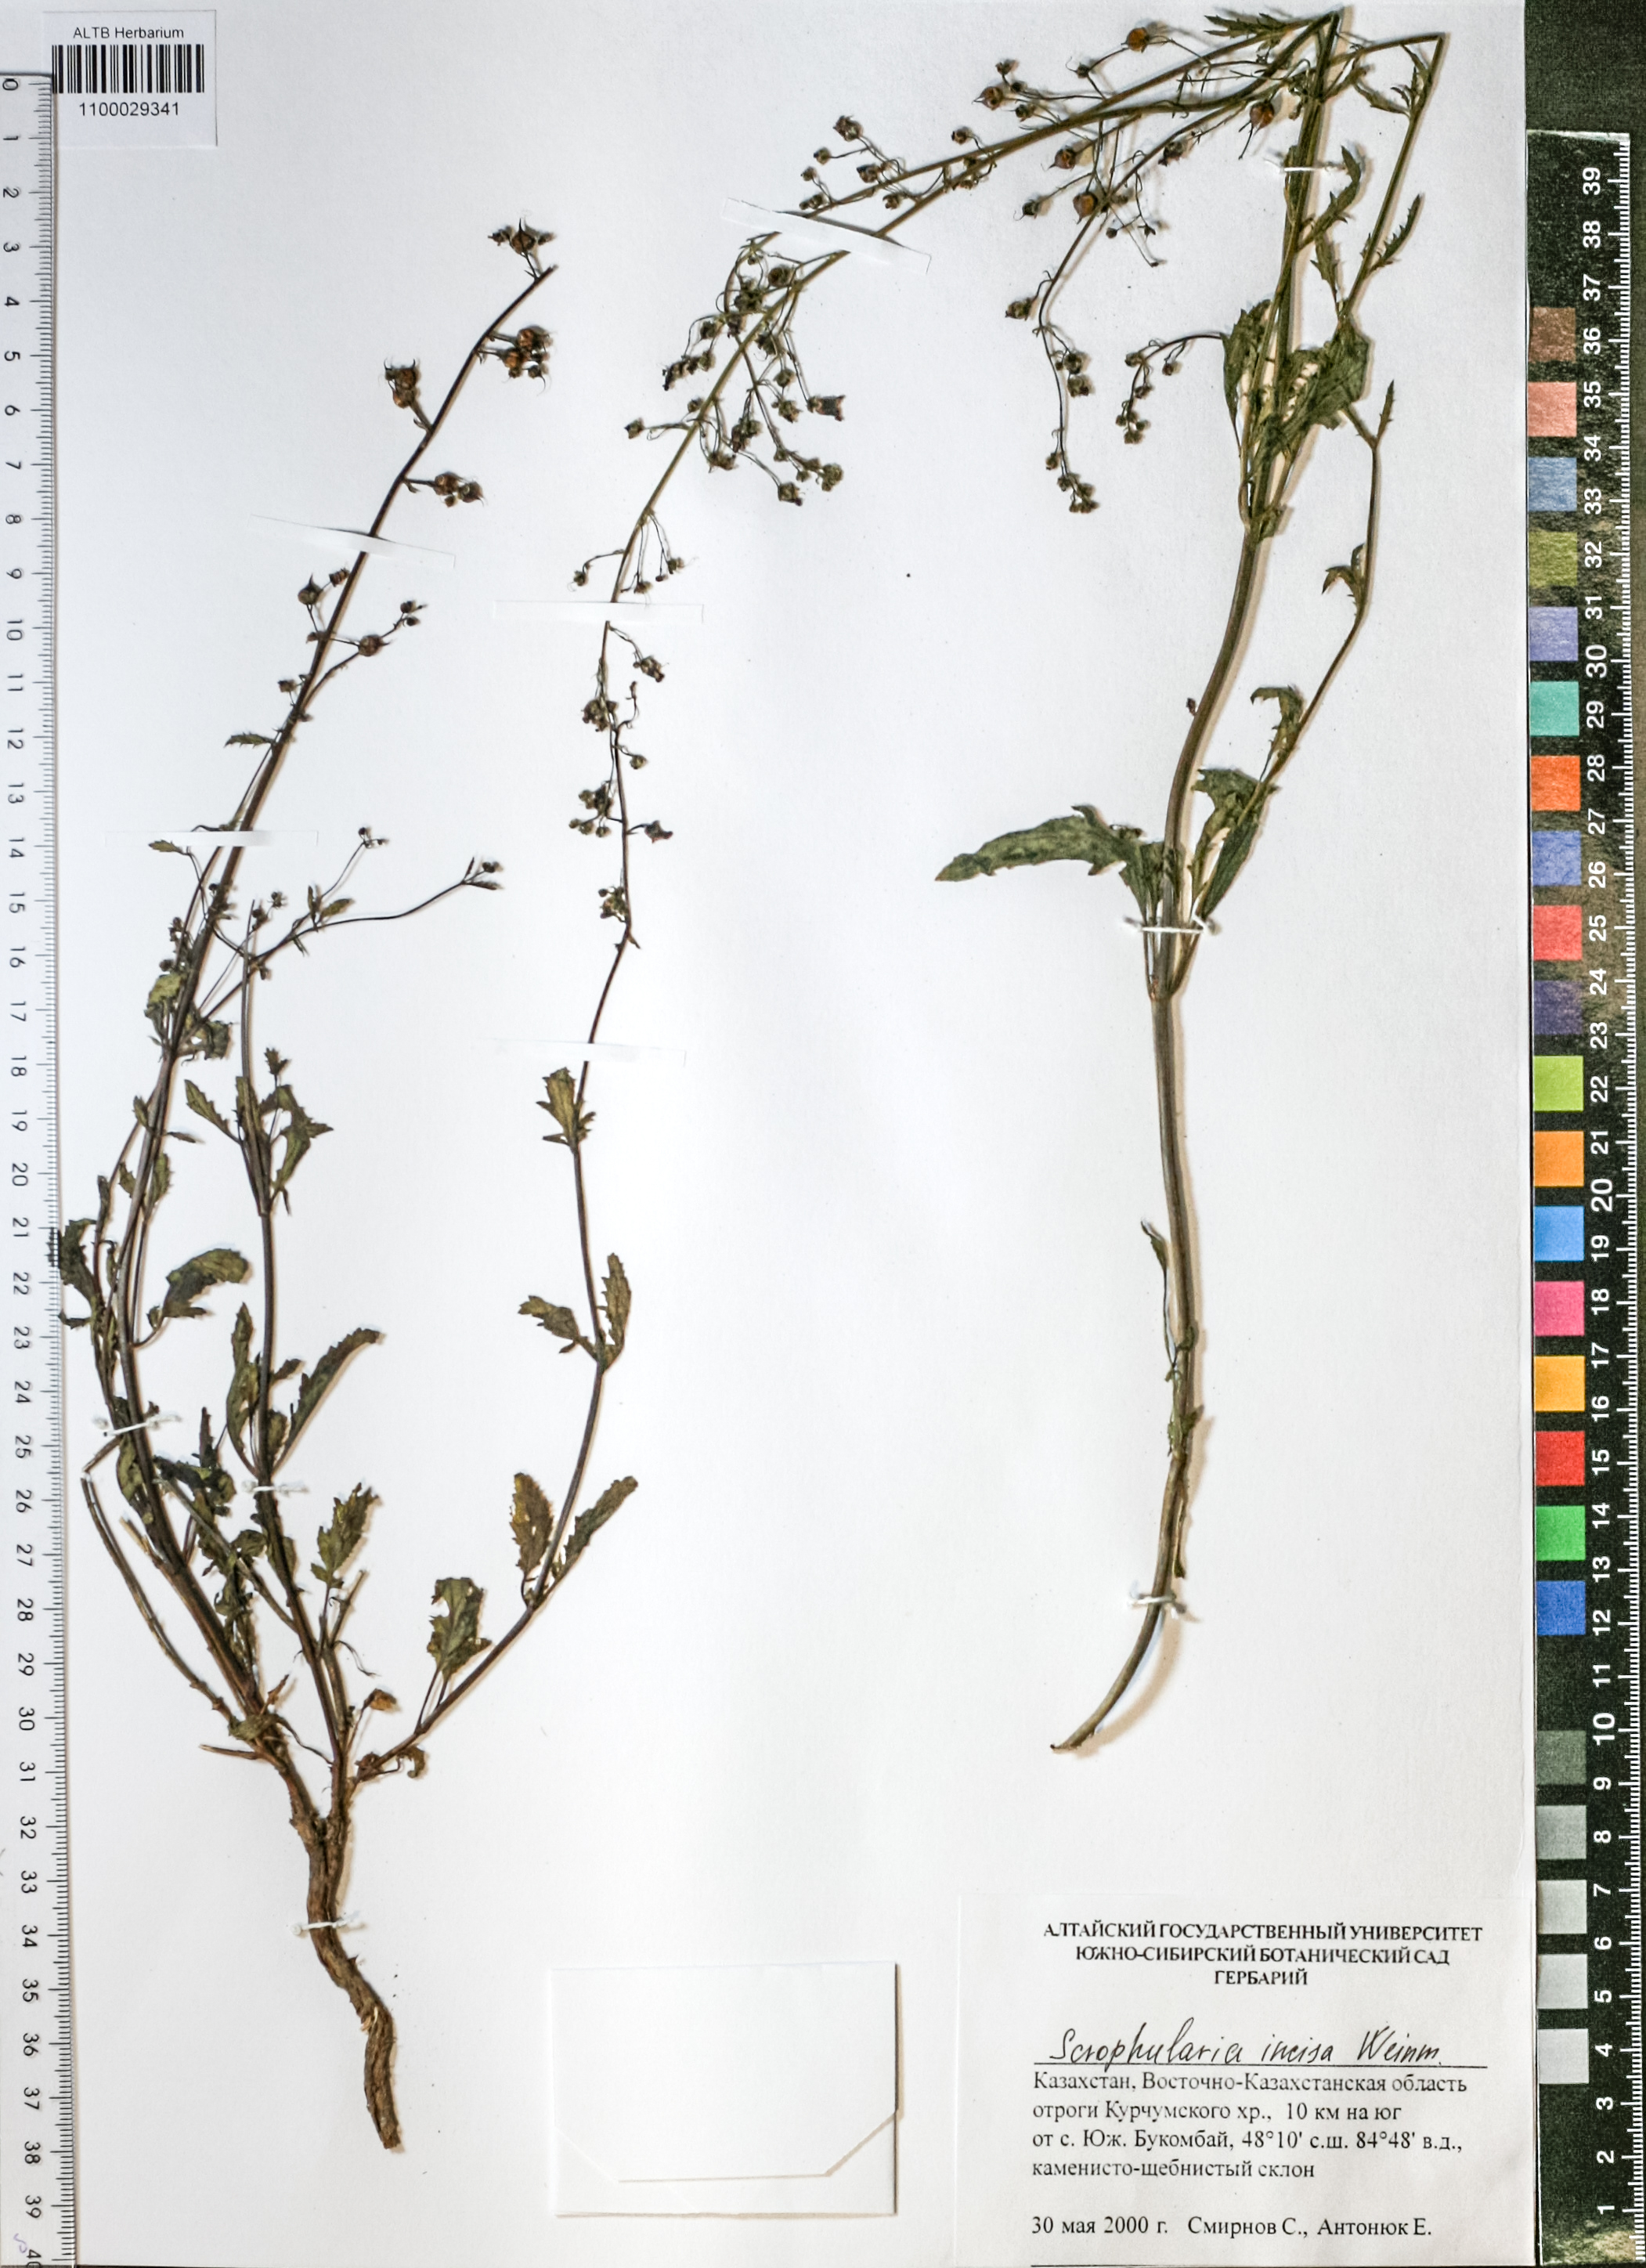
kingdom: Plantae
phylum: Tracheophyta
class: Magnoliopsida
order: Lamiales
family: Scrophulariaceae
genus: Scrophularia
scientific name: Scrophularia incisa
